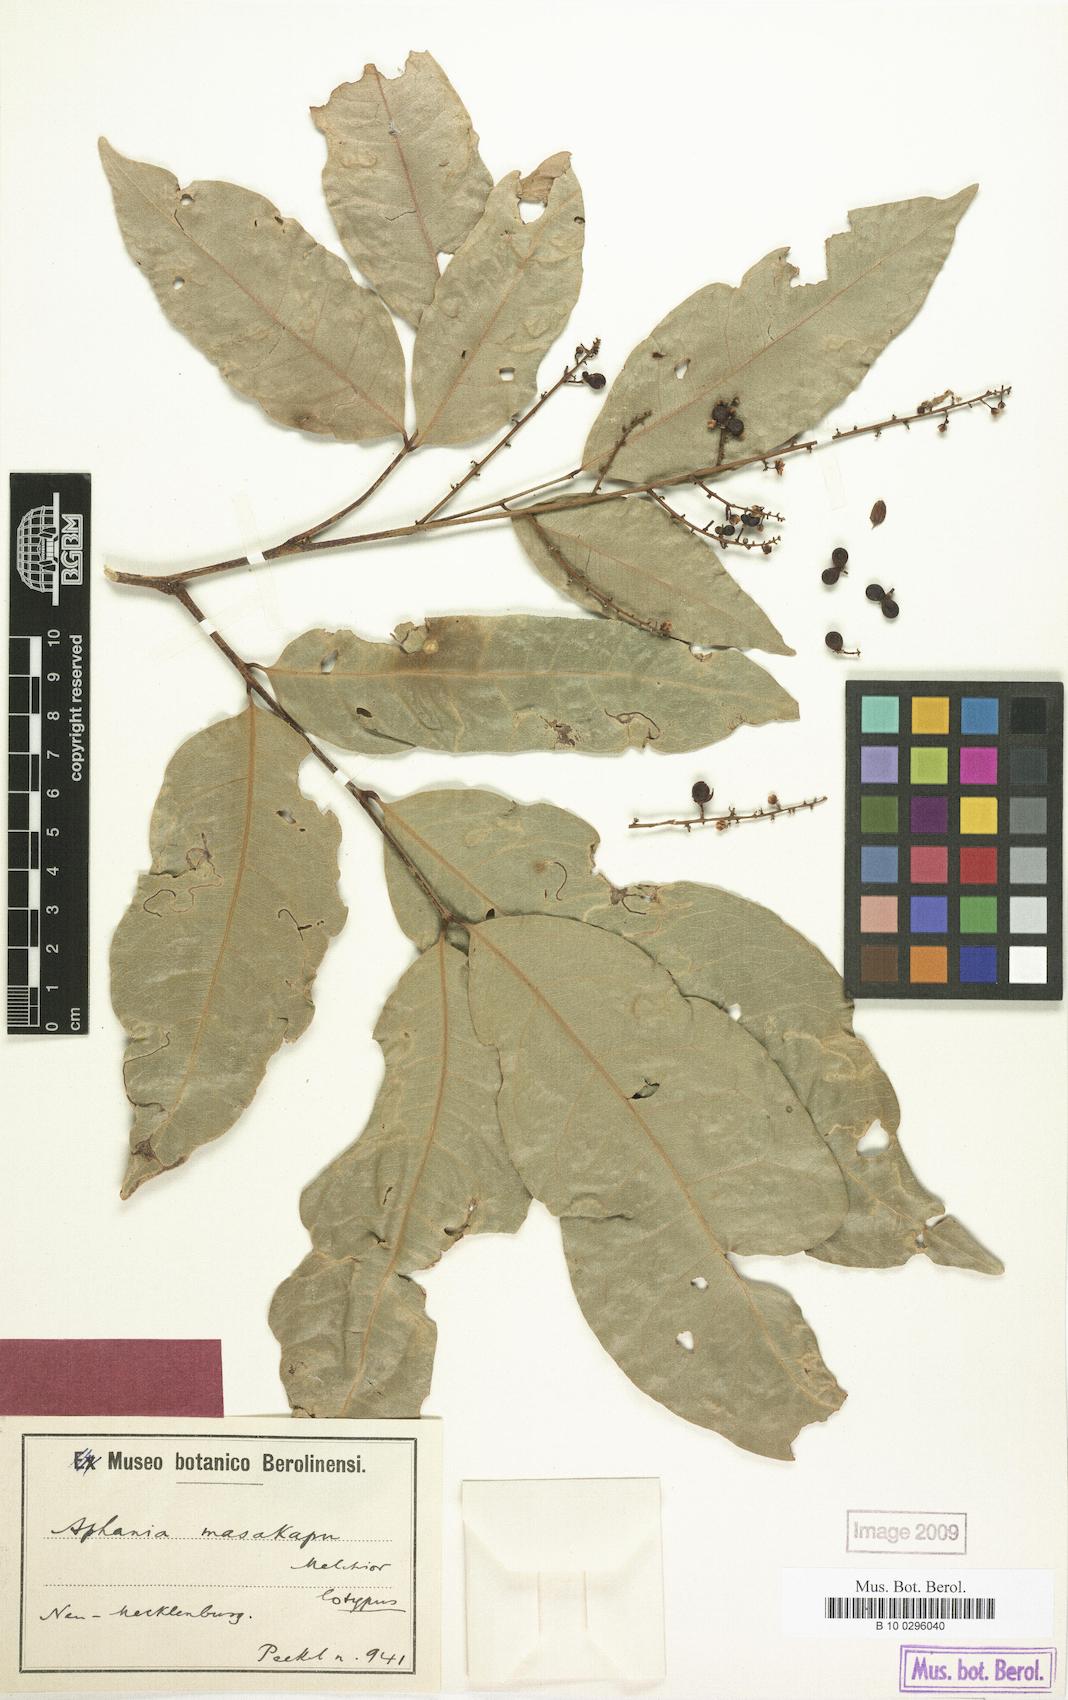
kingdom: Plantae
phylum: Tracheophyta
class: Magnoliopsida
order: Sapindales
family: Sapindaceae
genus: Lepisanthes
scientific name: Lepisanthes senegalensis
